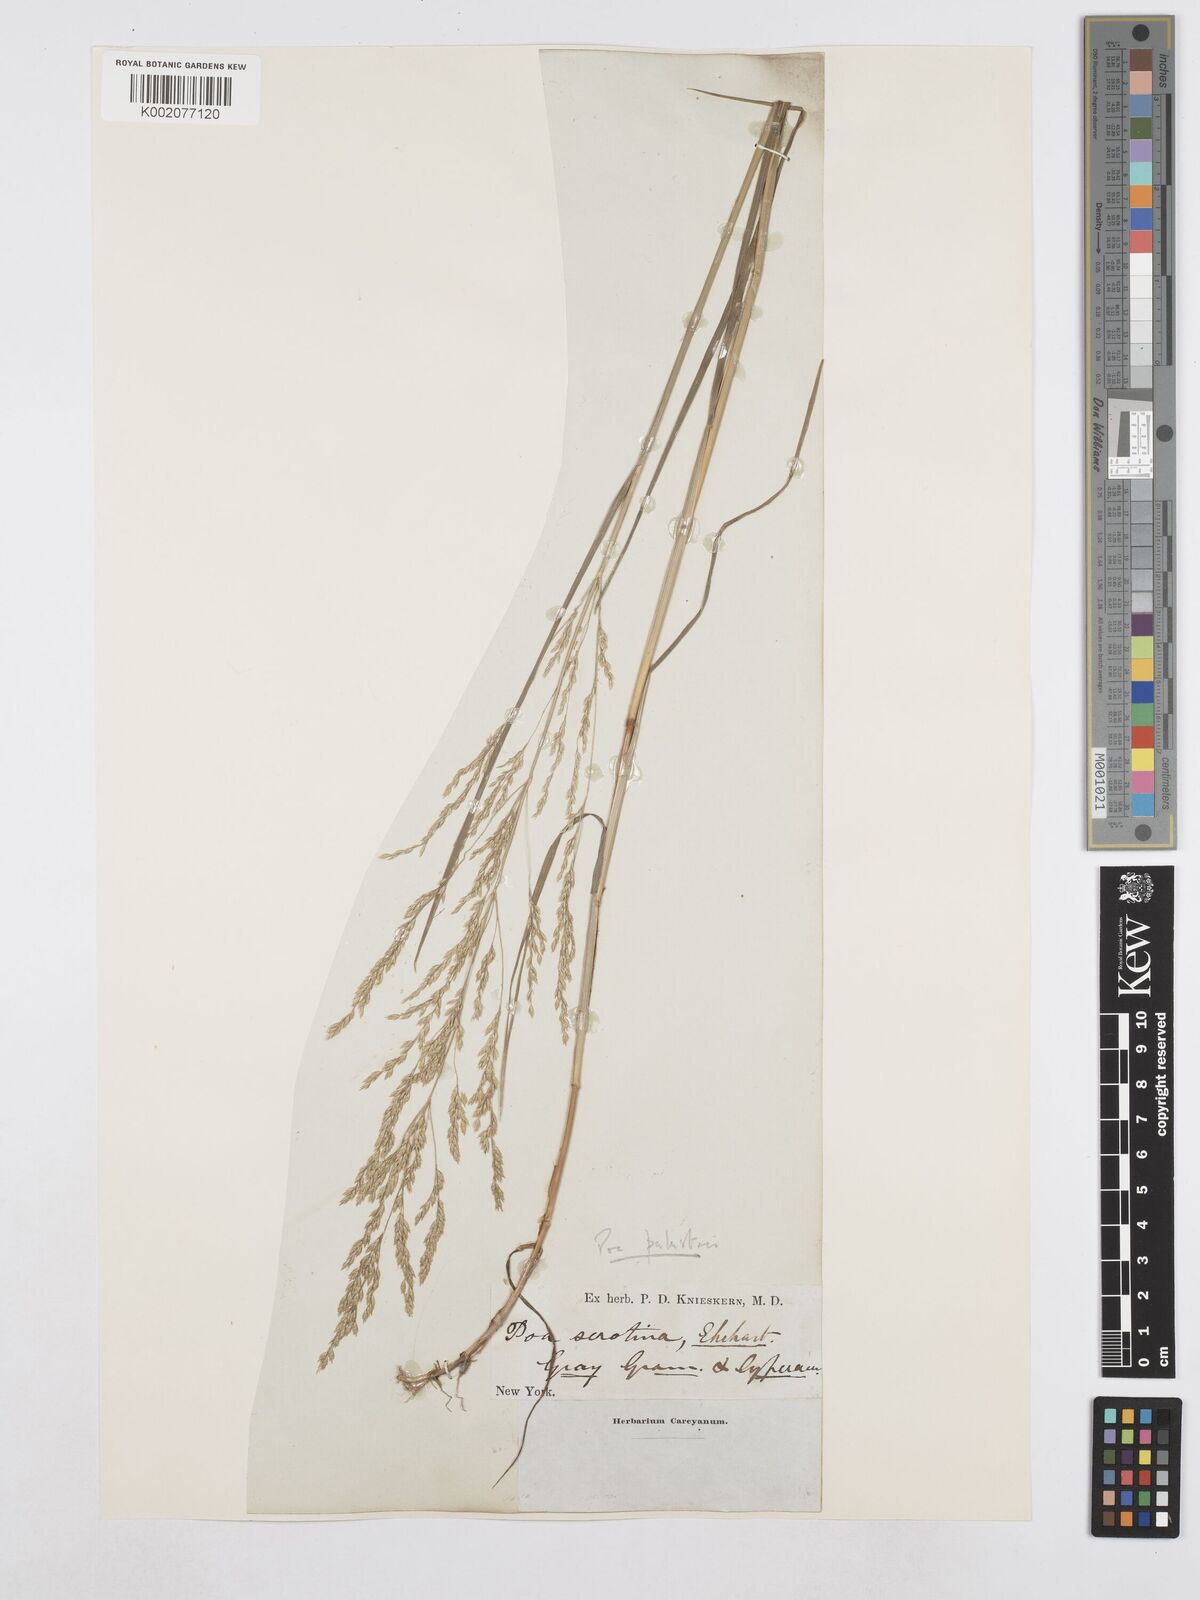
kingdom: Plantae
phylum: Tracheophyta
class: Liliopsida
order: Poales
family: Poaceae
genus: Poa
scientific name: Poa palustris
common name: Swamp meadow-grass
